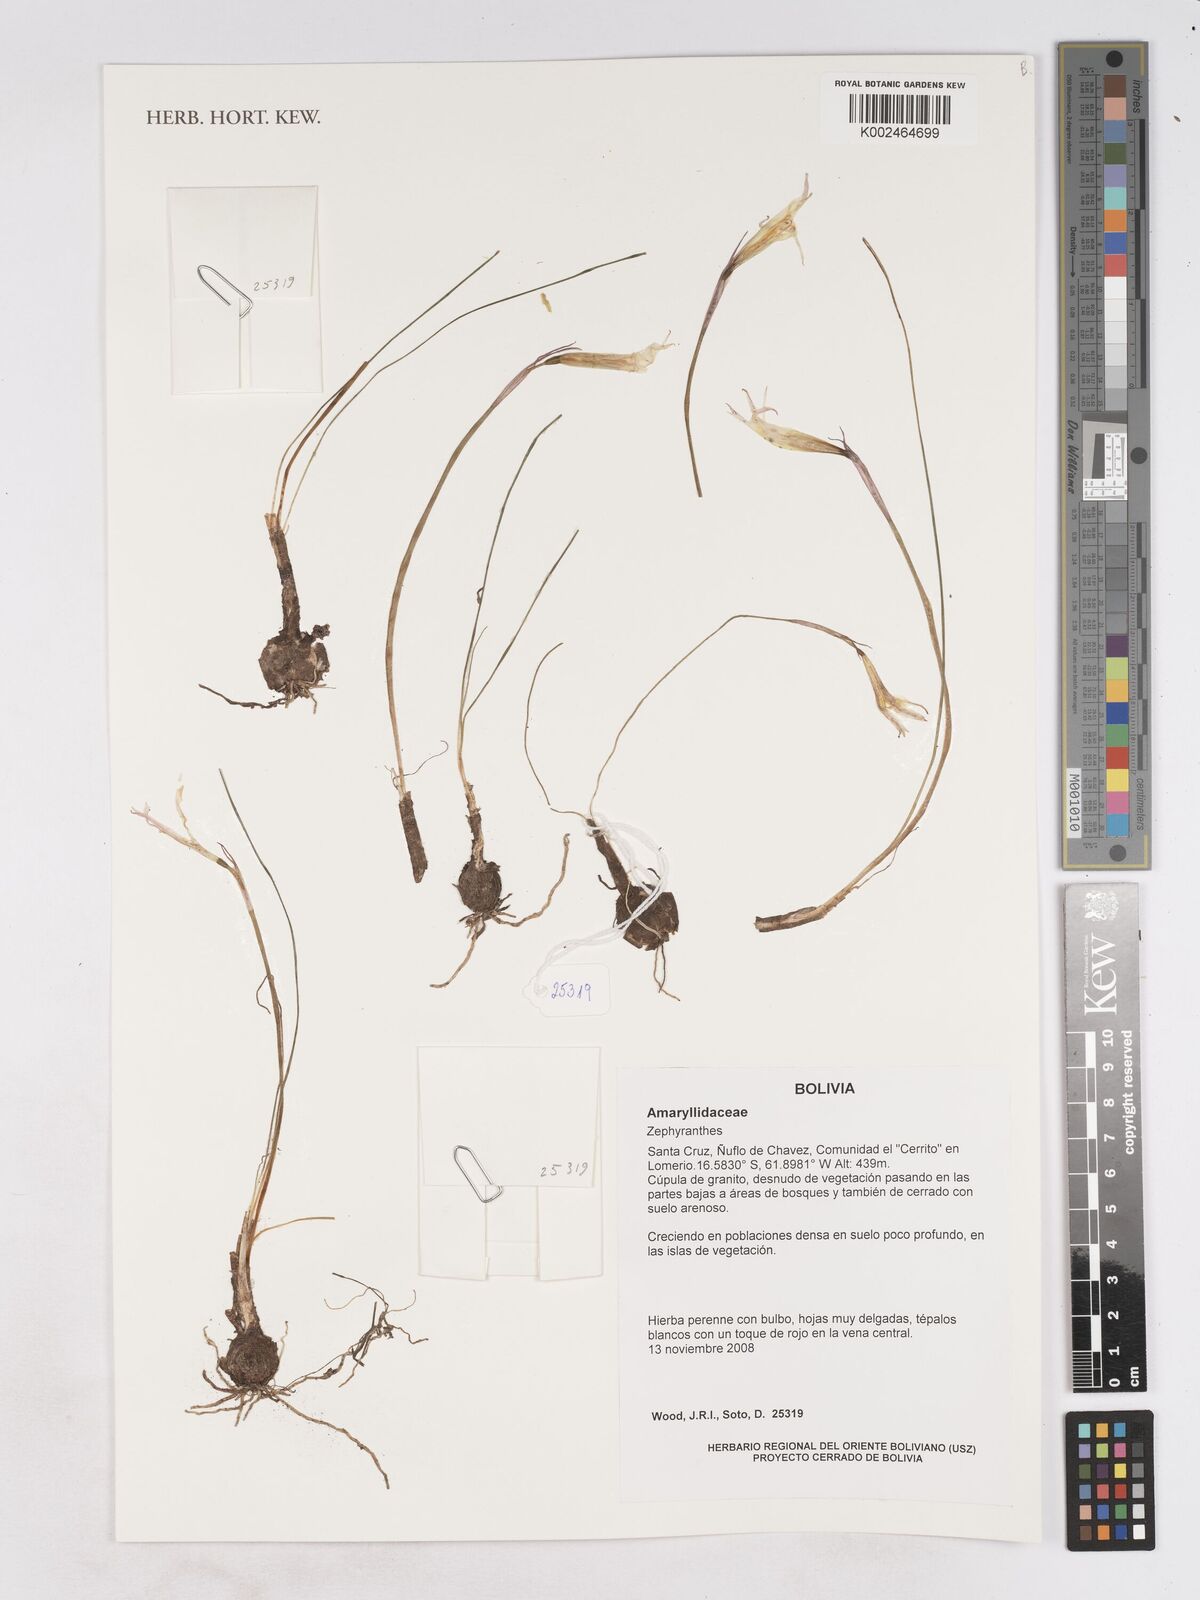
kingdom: Plantae
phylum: Tracheophyta
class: Liliopsida
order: Asparagales
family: Amaryllidaceae
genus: Zephyranthes
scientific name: Zephyranthes
